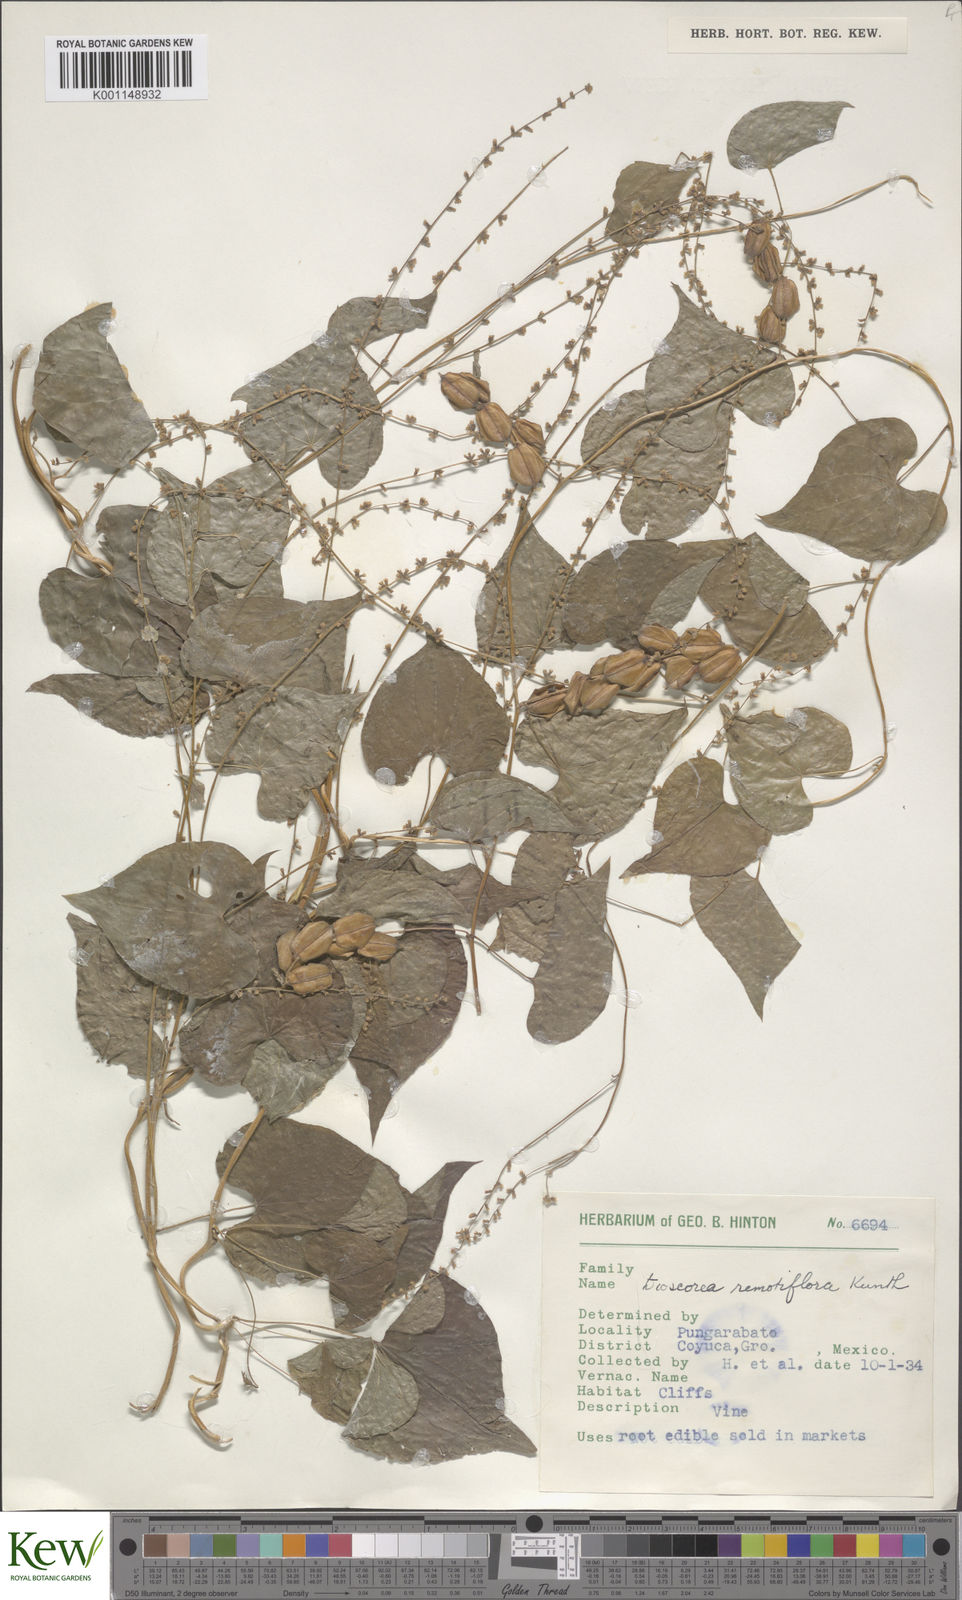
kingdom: Plantae
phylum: Tracheophyta
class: Liliopsida
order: Dioscoreales
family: Dioscoreaceae
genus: Dioscorea
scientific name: Dioscorea remotiflora
